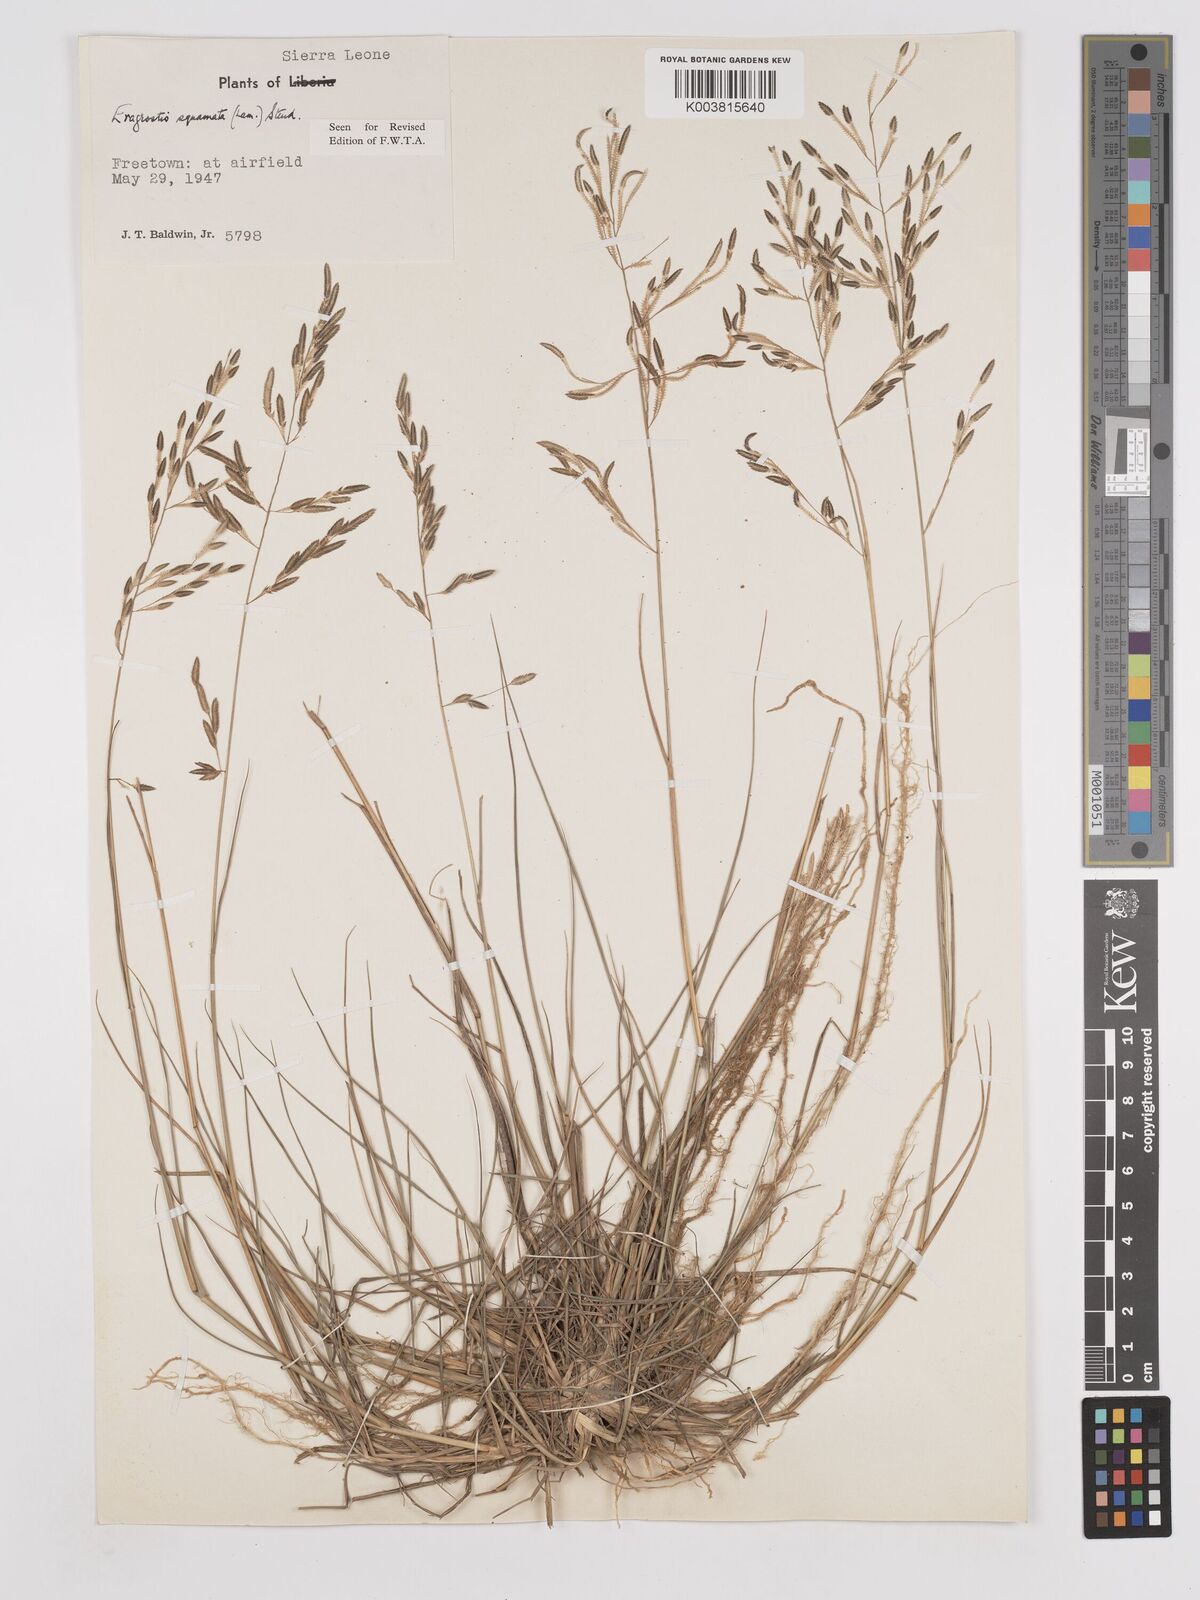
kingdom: Plantae
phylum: Tracheophyta
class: Liliopsida
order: Poales
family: Poaceae
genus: Eragrostis
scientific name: Eragrostis squamata
